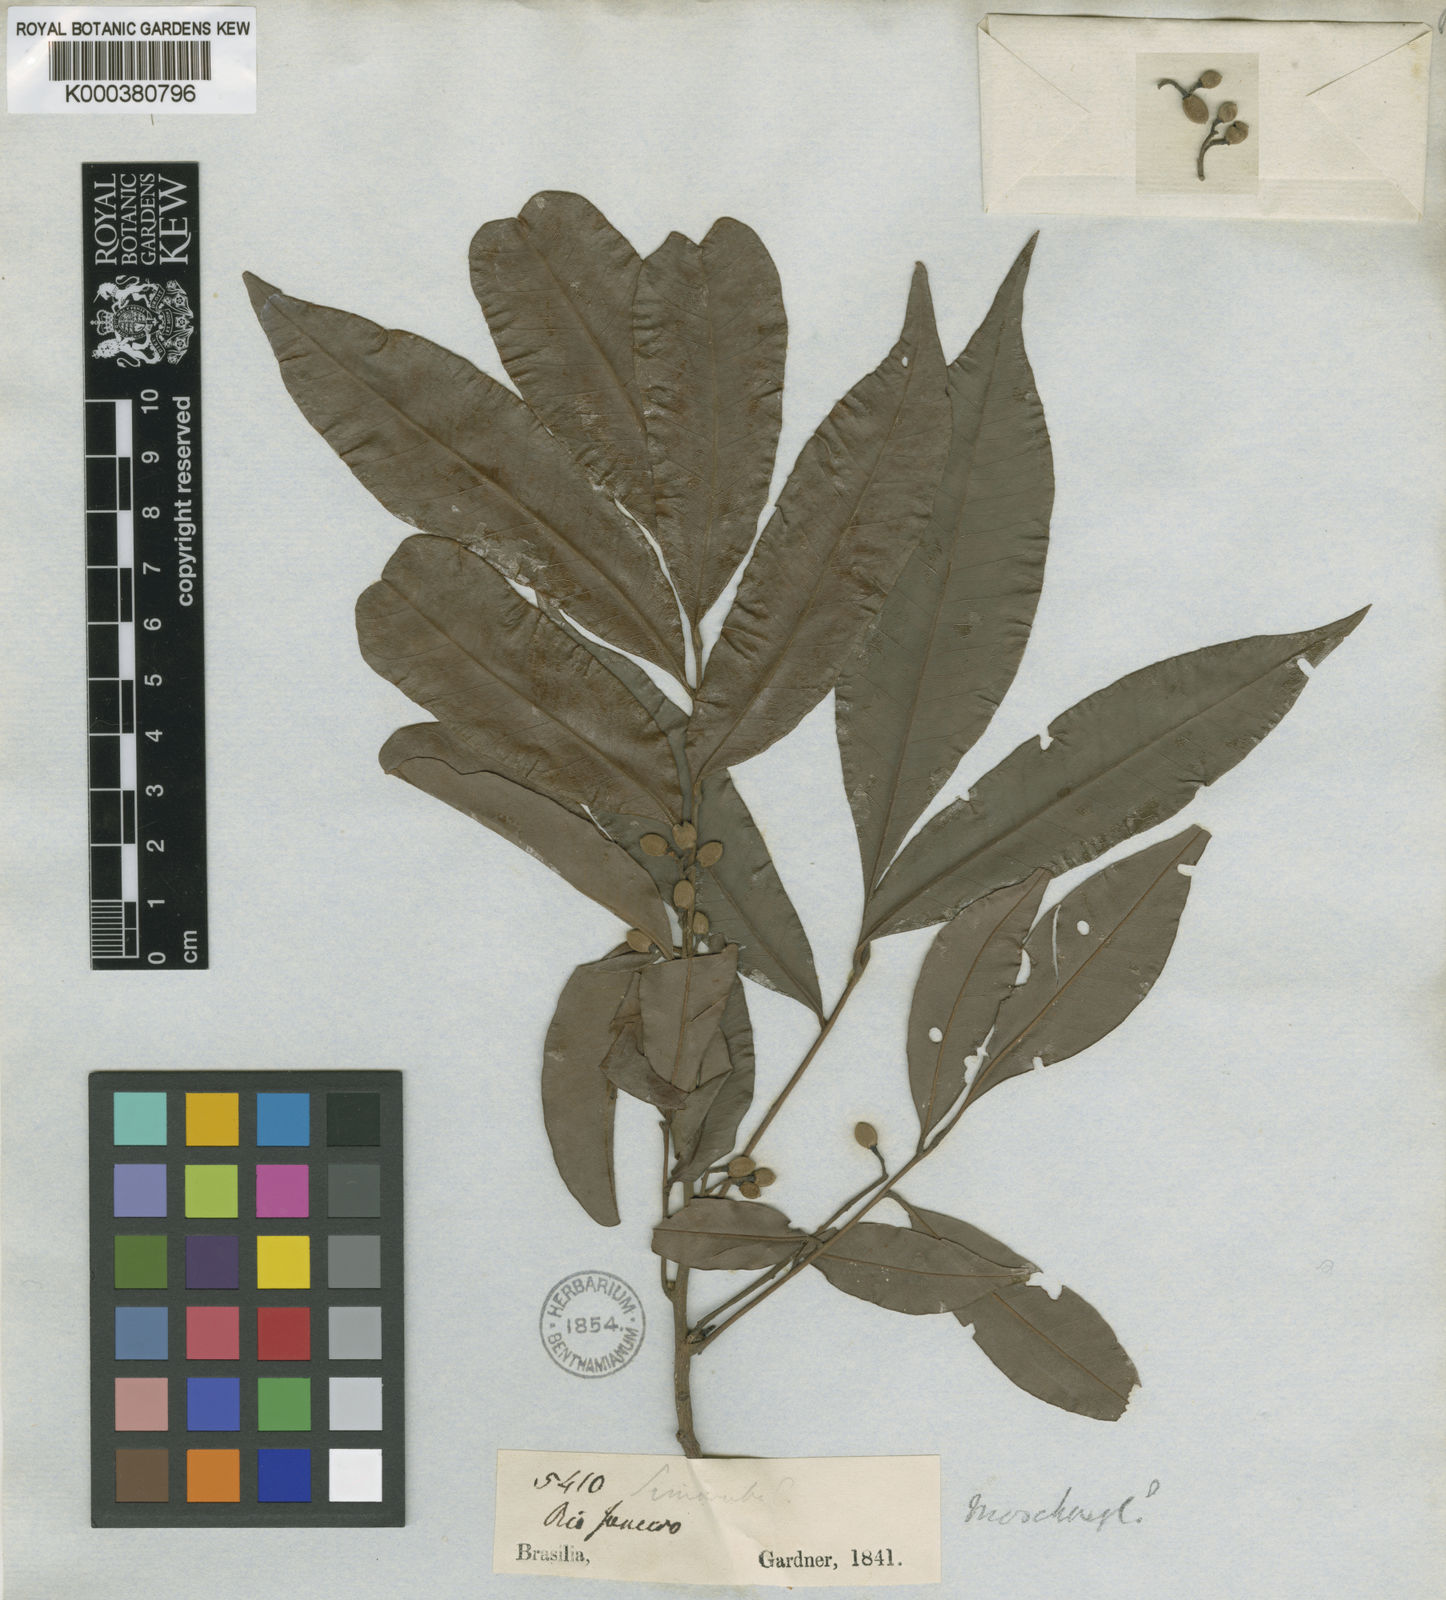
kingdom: Plantae
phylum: Tracheophyta
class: Magnoliopsida
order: Sapindales
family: Meliaceae
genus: Trichilia
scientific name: Trichilia silvatica
